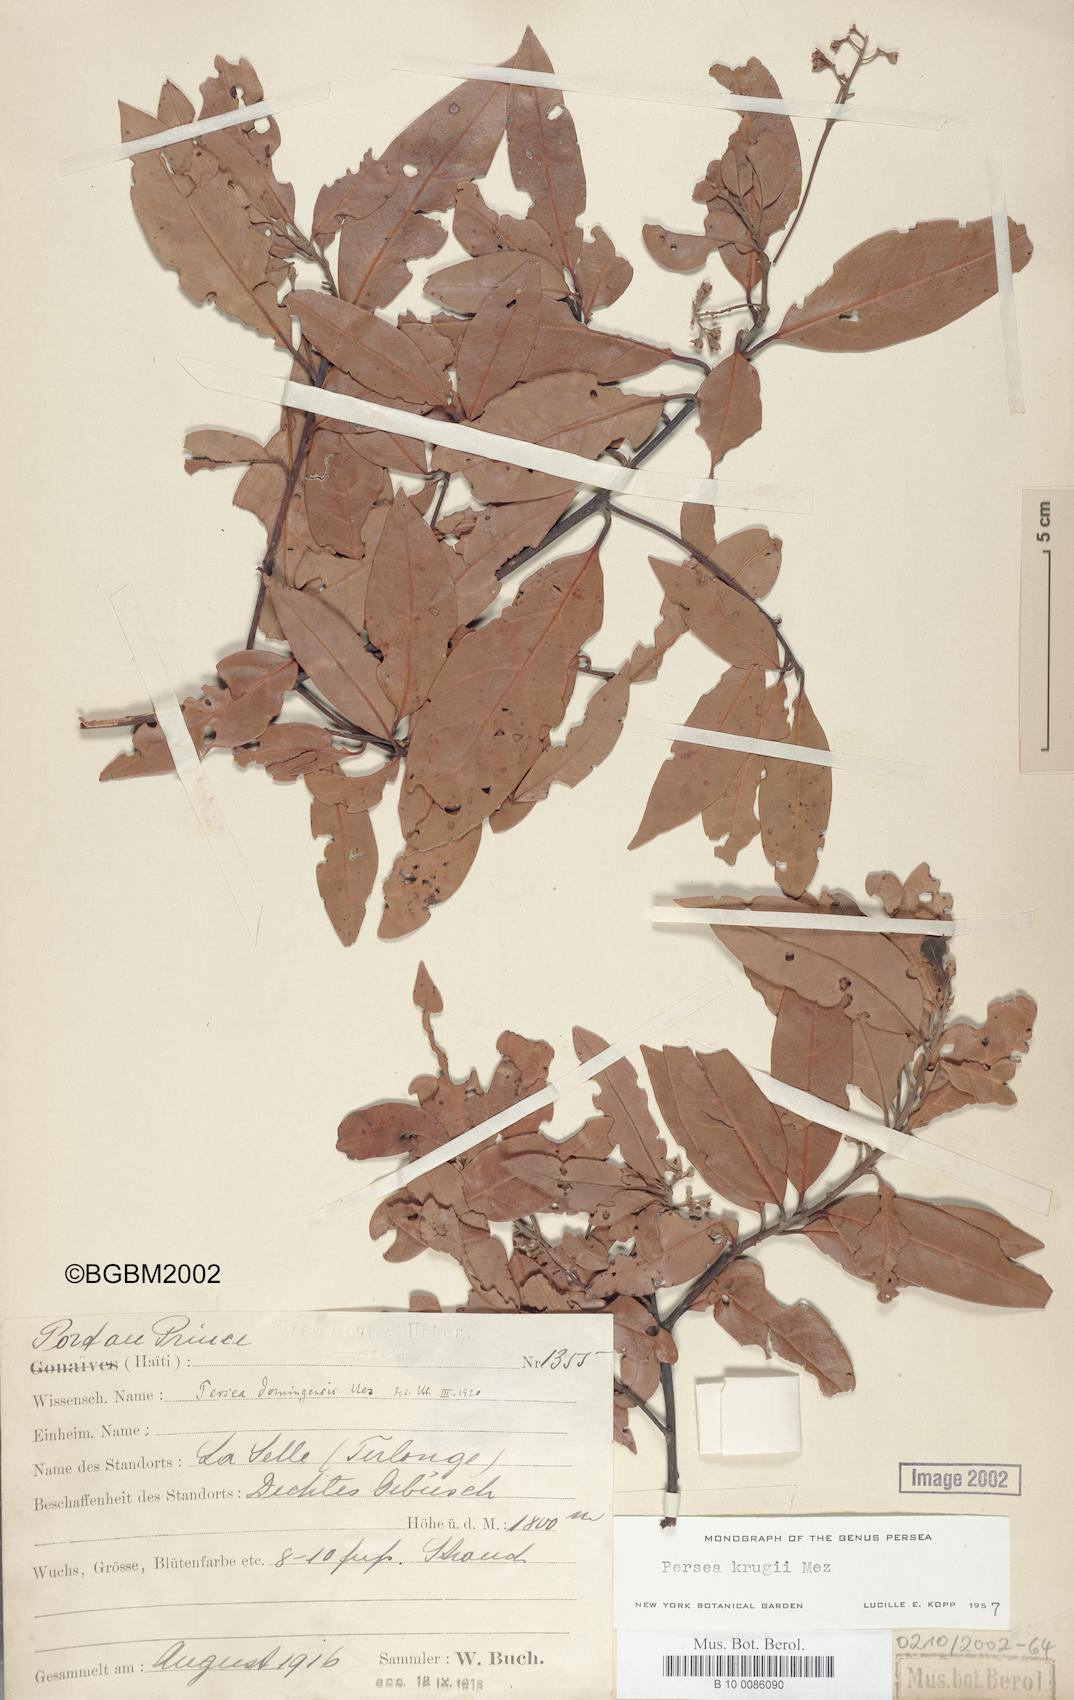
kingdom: Plantae
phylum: Tracheophyta
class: Magnoliopsida
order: Laurales
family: Lauraceae
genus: Persea
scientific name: Persea krugii
